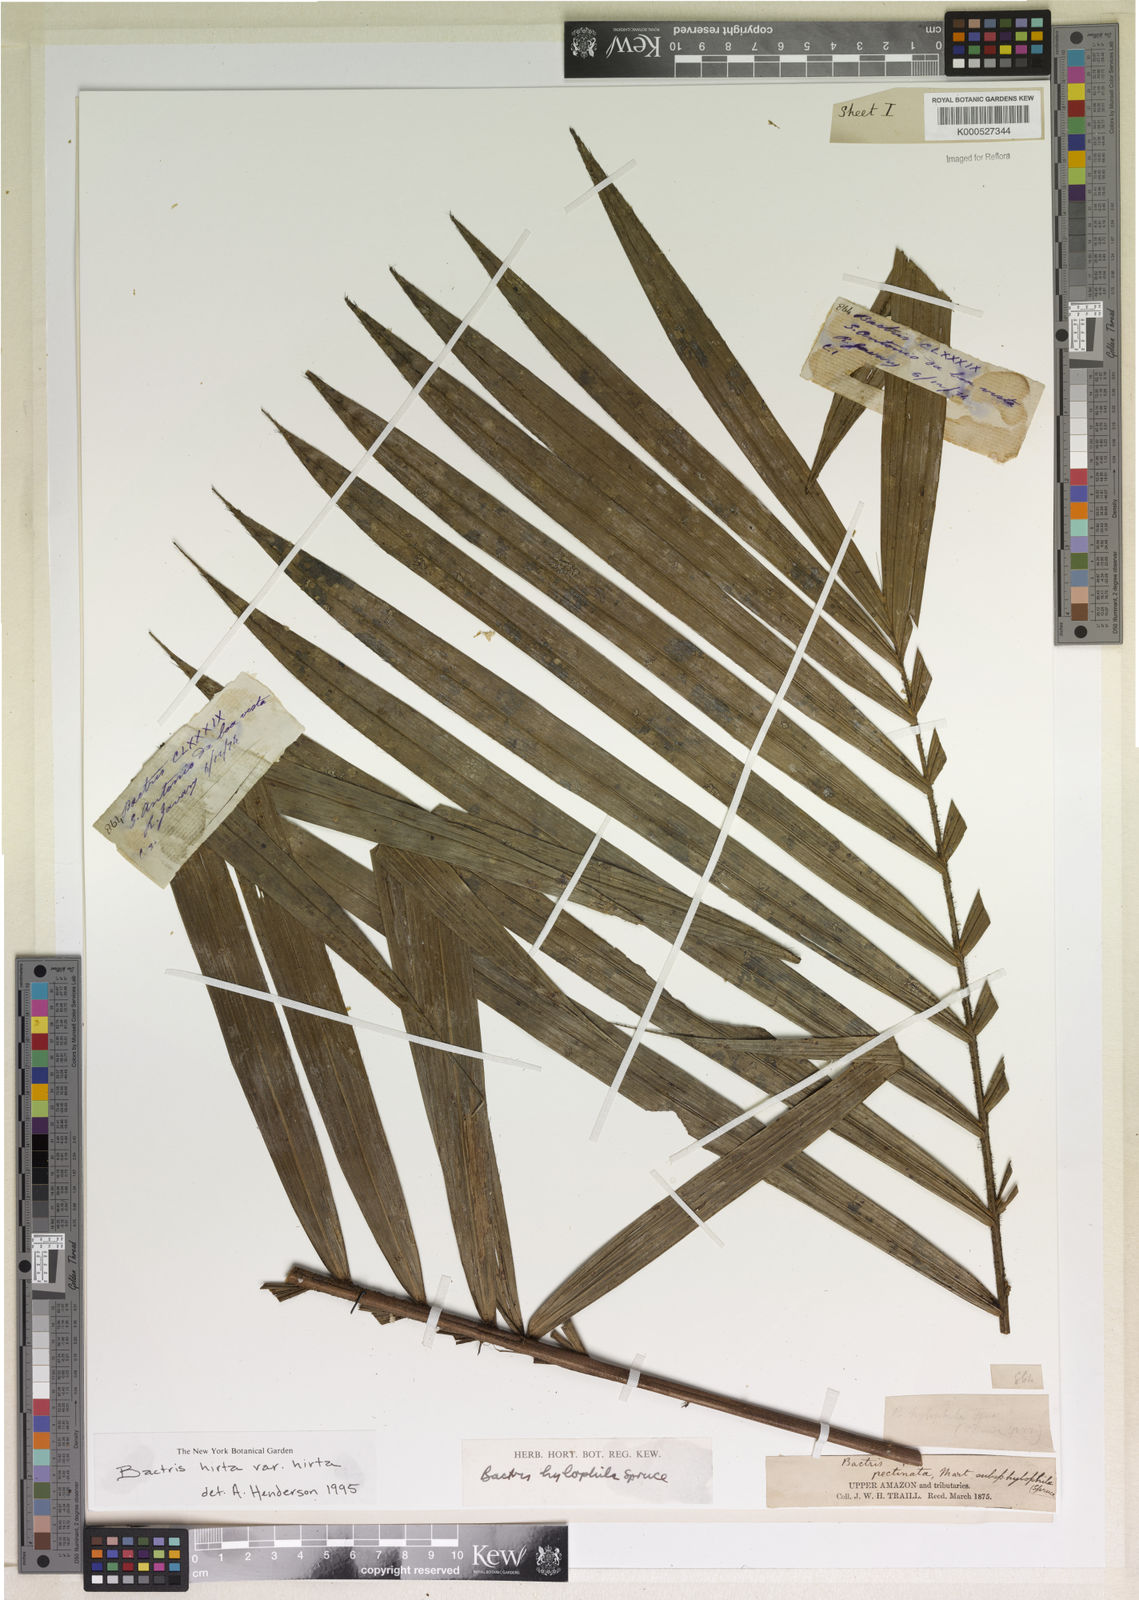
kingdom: Plantae
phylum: Tracheophyta
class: Liliopsida
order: Arecales
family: Arecaceae
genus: Bactris
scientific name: Bactris hirta
